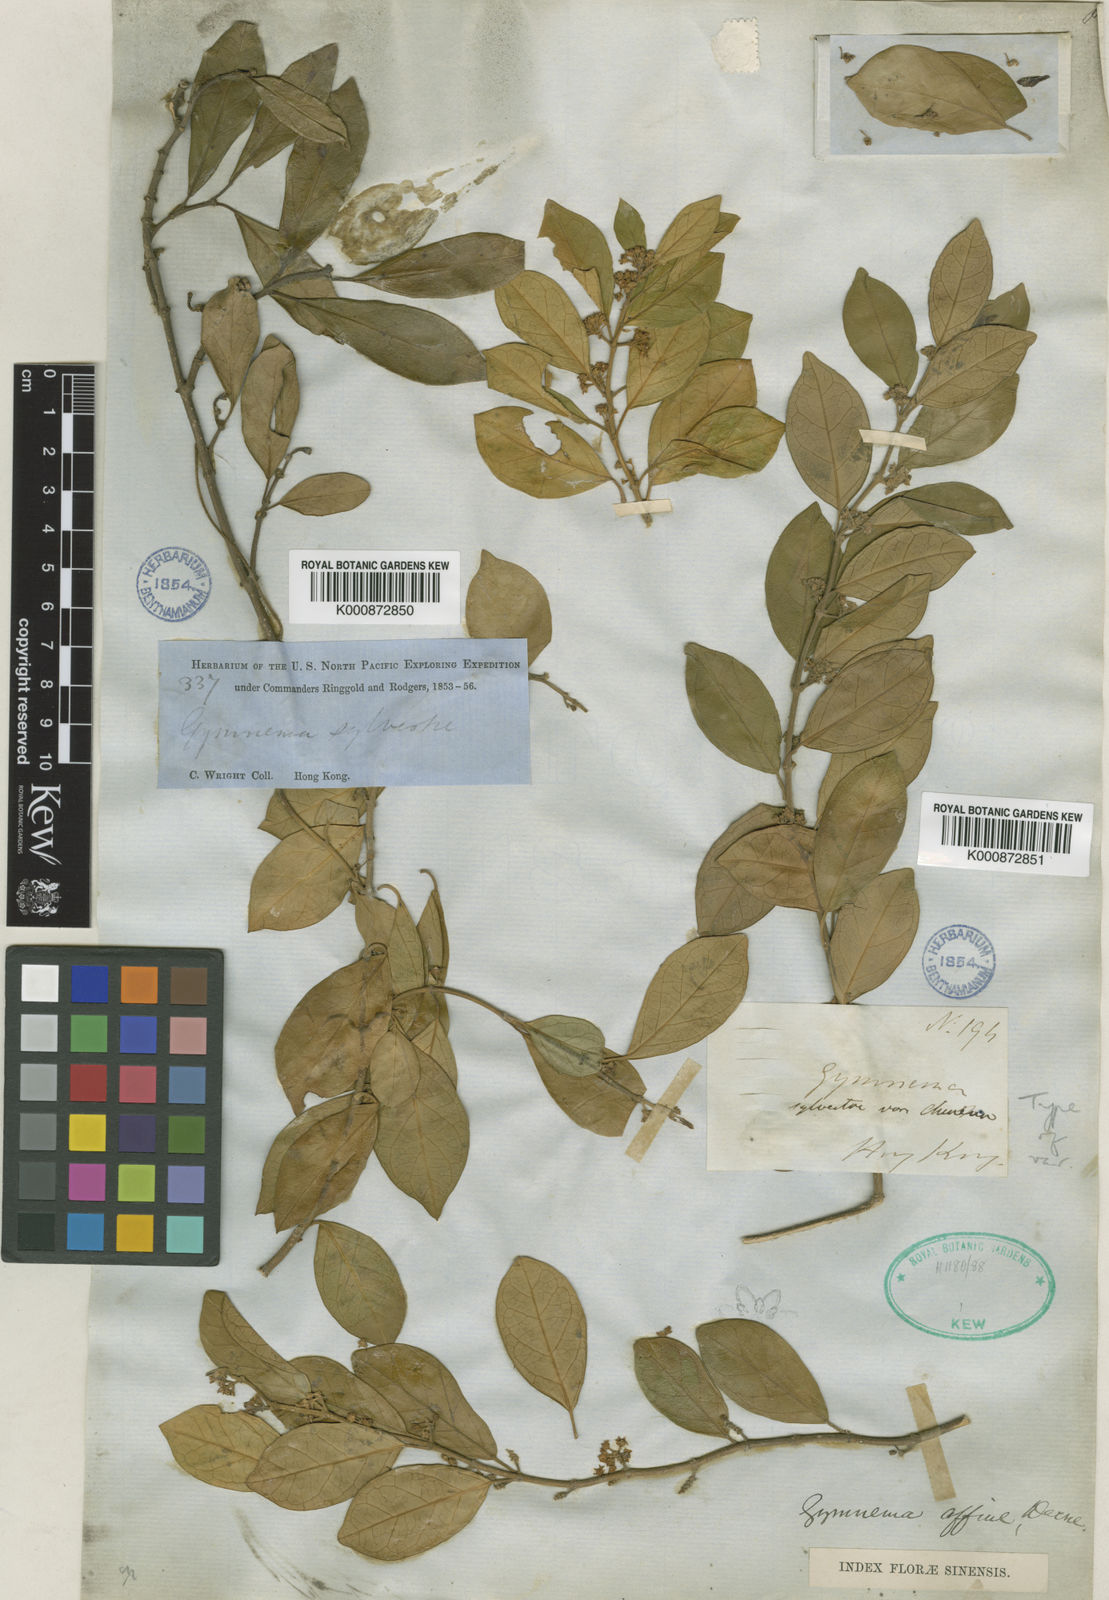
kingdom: Plantae
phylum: Tracheophyta
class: Magnoliopsida
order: Gentianales
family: Apocynaceae
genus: Gymnema
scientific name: Gymnema sylvestre
